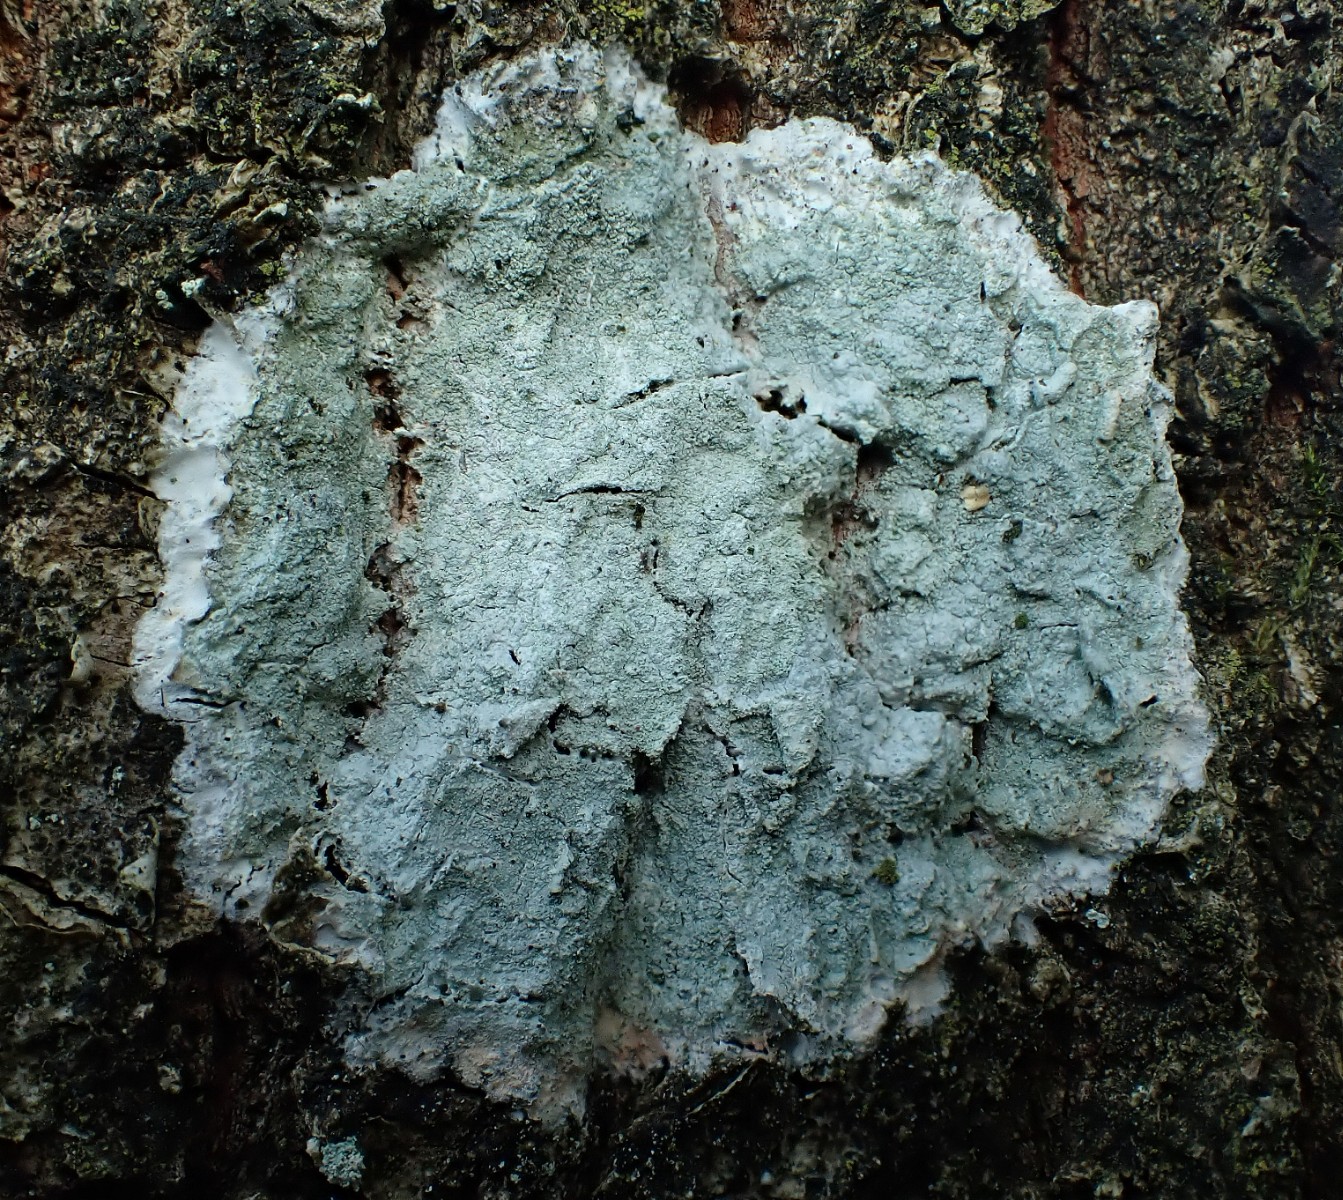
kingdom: Fungi
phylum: Ascomycota
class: Lecanoromycetes
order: Ostropales
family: Phlyctidaceae
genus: Phlyctis
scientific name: Phlyctis argena
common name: almindelig sølvlav
